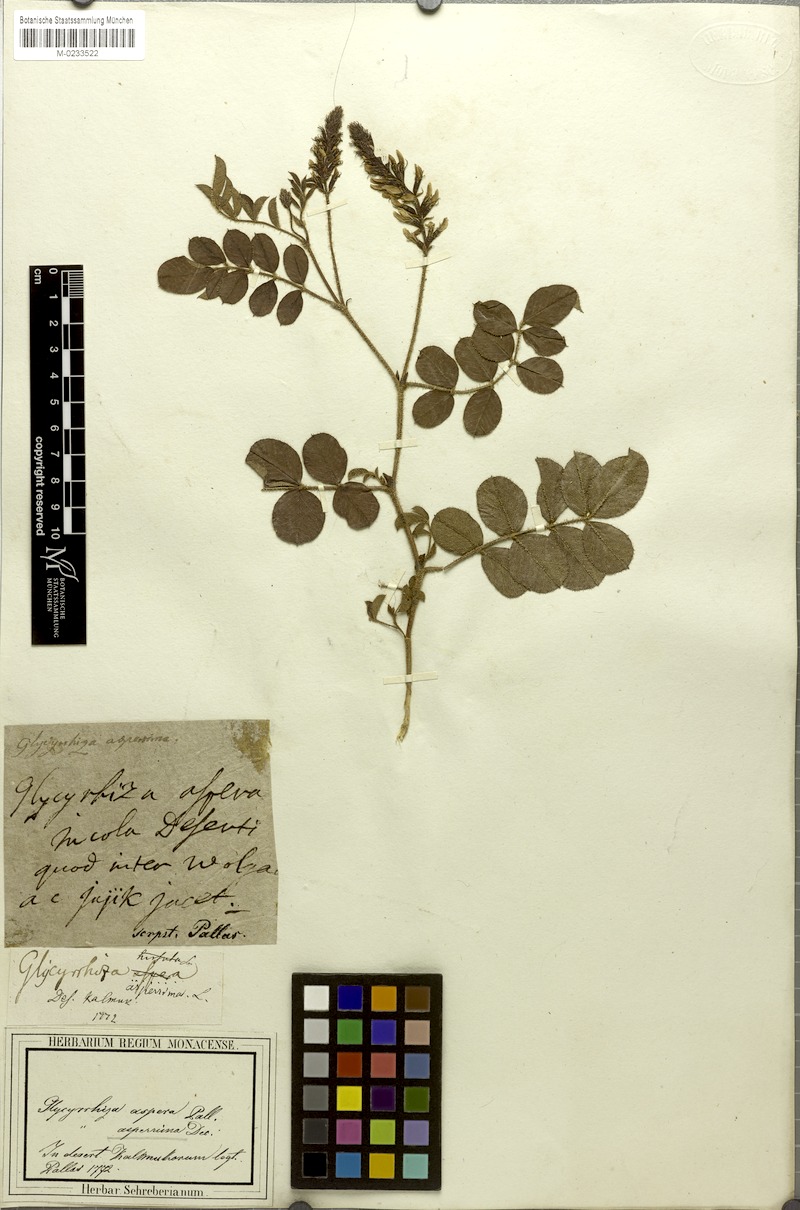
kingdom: Plantae
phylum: Tracheophyta
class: Magnoliopsida
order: Fabales
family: Fabaceae
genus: Glycyrrhiza
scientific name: Glycyrrhiza aspera
